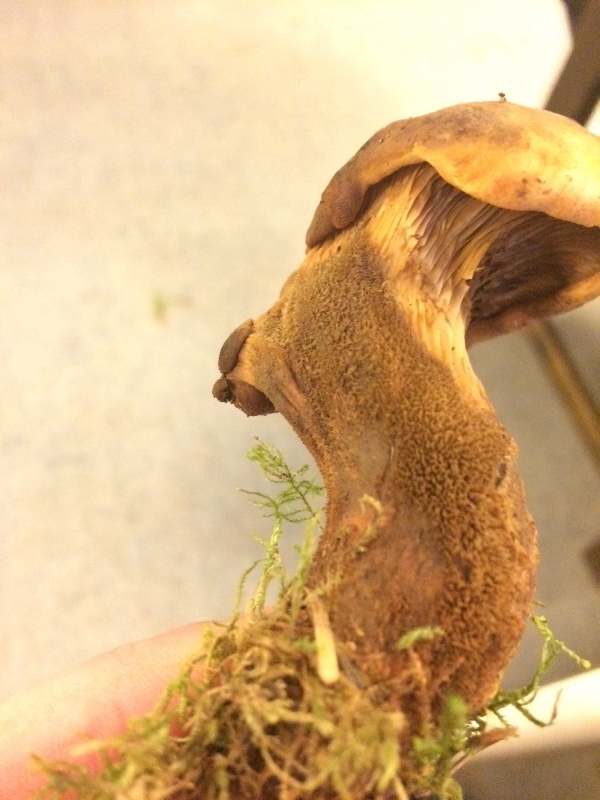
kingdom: Fungi
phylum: Basidiomycota
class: Agaricomycetes
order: Boletales
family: Tapinellaceae
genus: Tapinella
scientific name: Tapinella atrotomentosa
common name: sortfiltet viftesvamp
